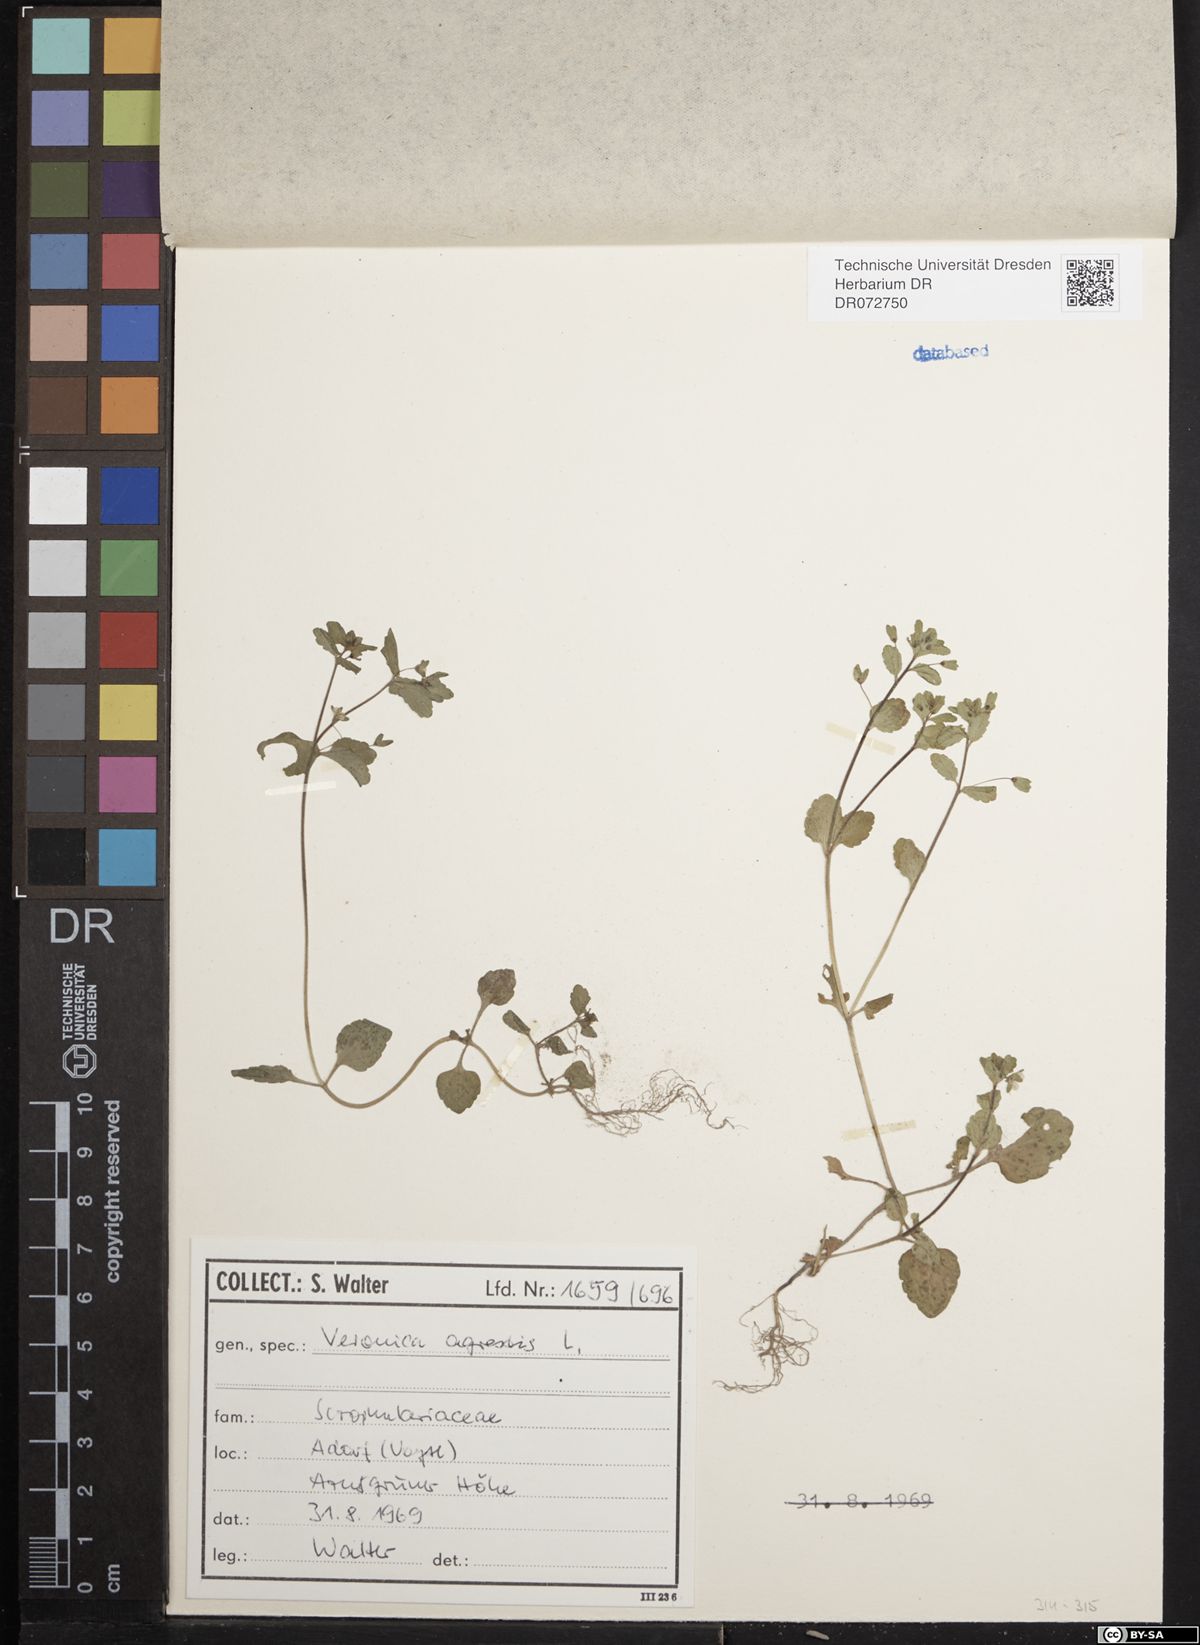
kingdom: Plantae
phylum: Tracheophyta
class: Magnoliopsida
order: Lamiales
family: Plantaginaceae
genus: Veronica
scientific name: Veronica agrestis
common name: Green field-speedwell
